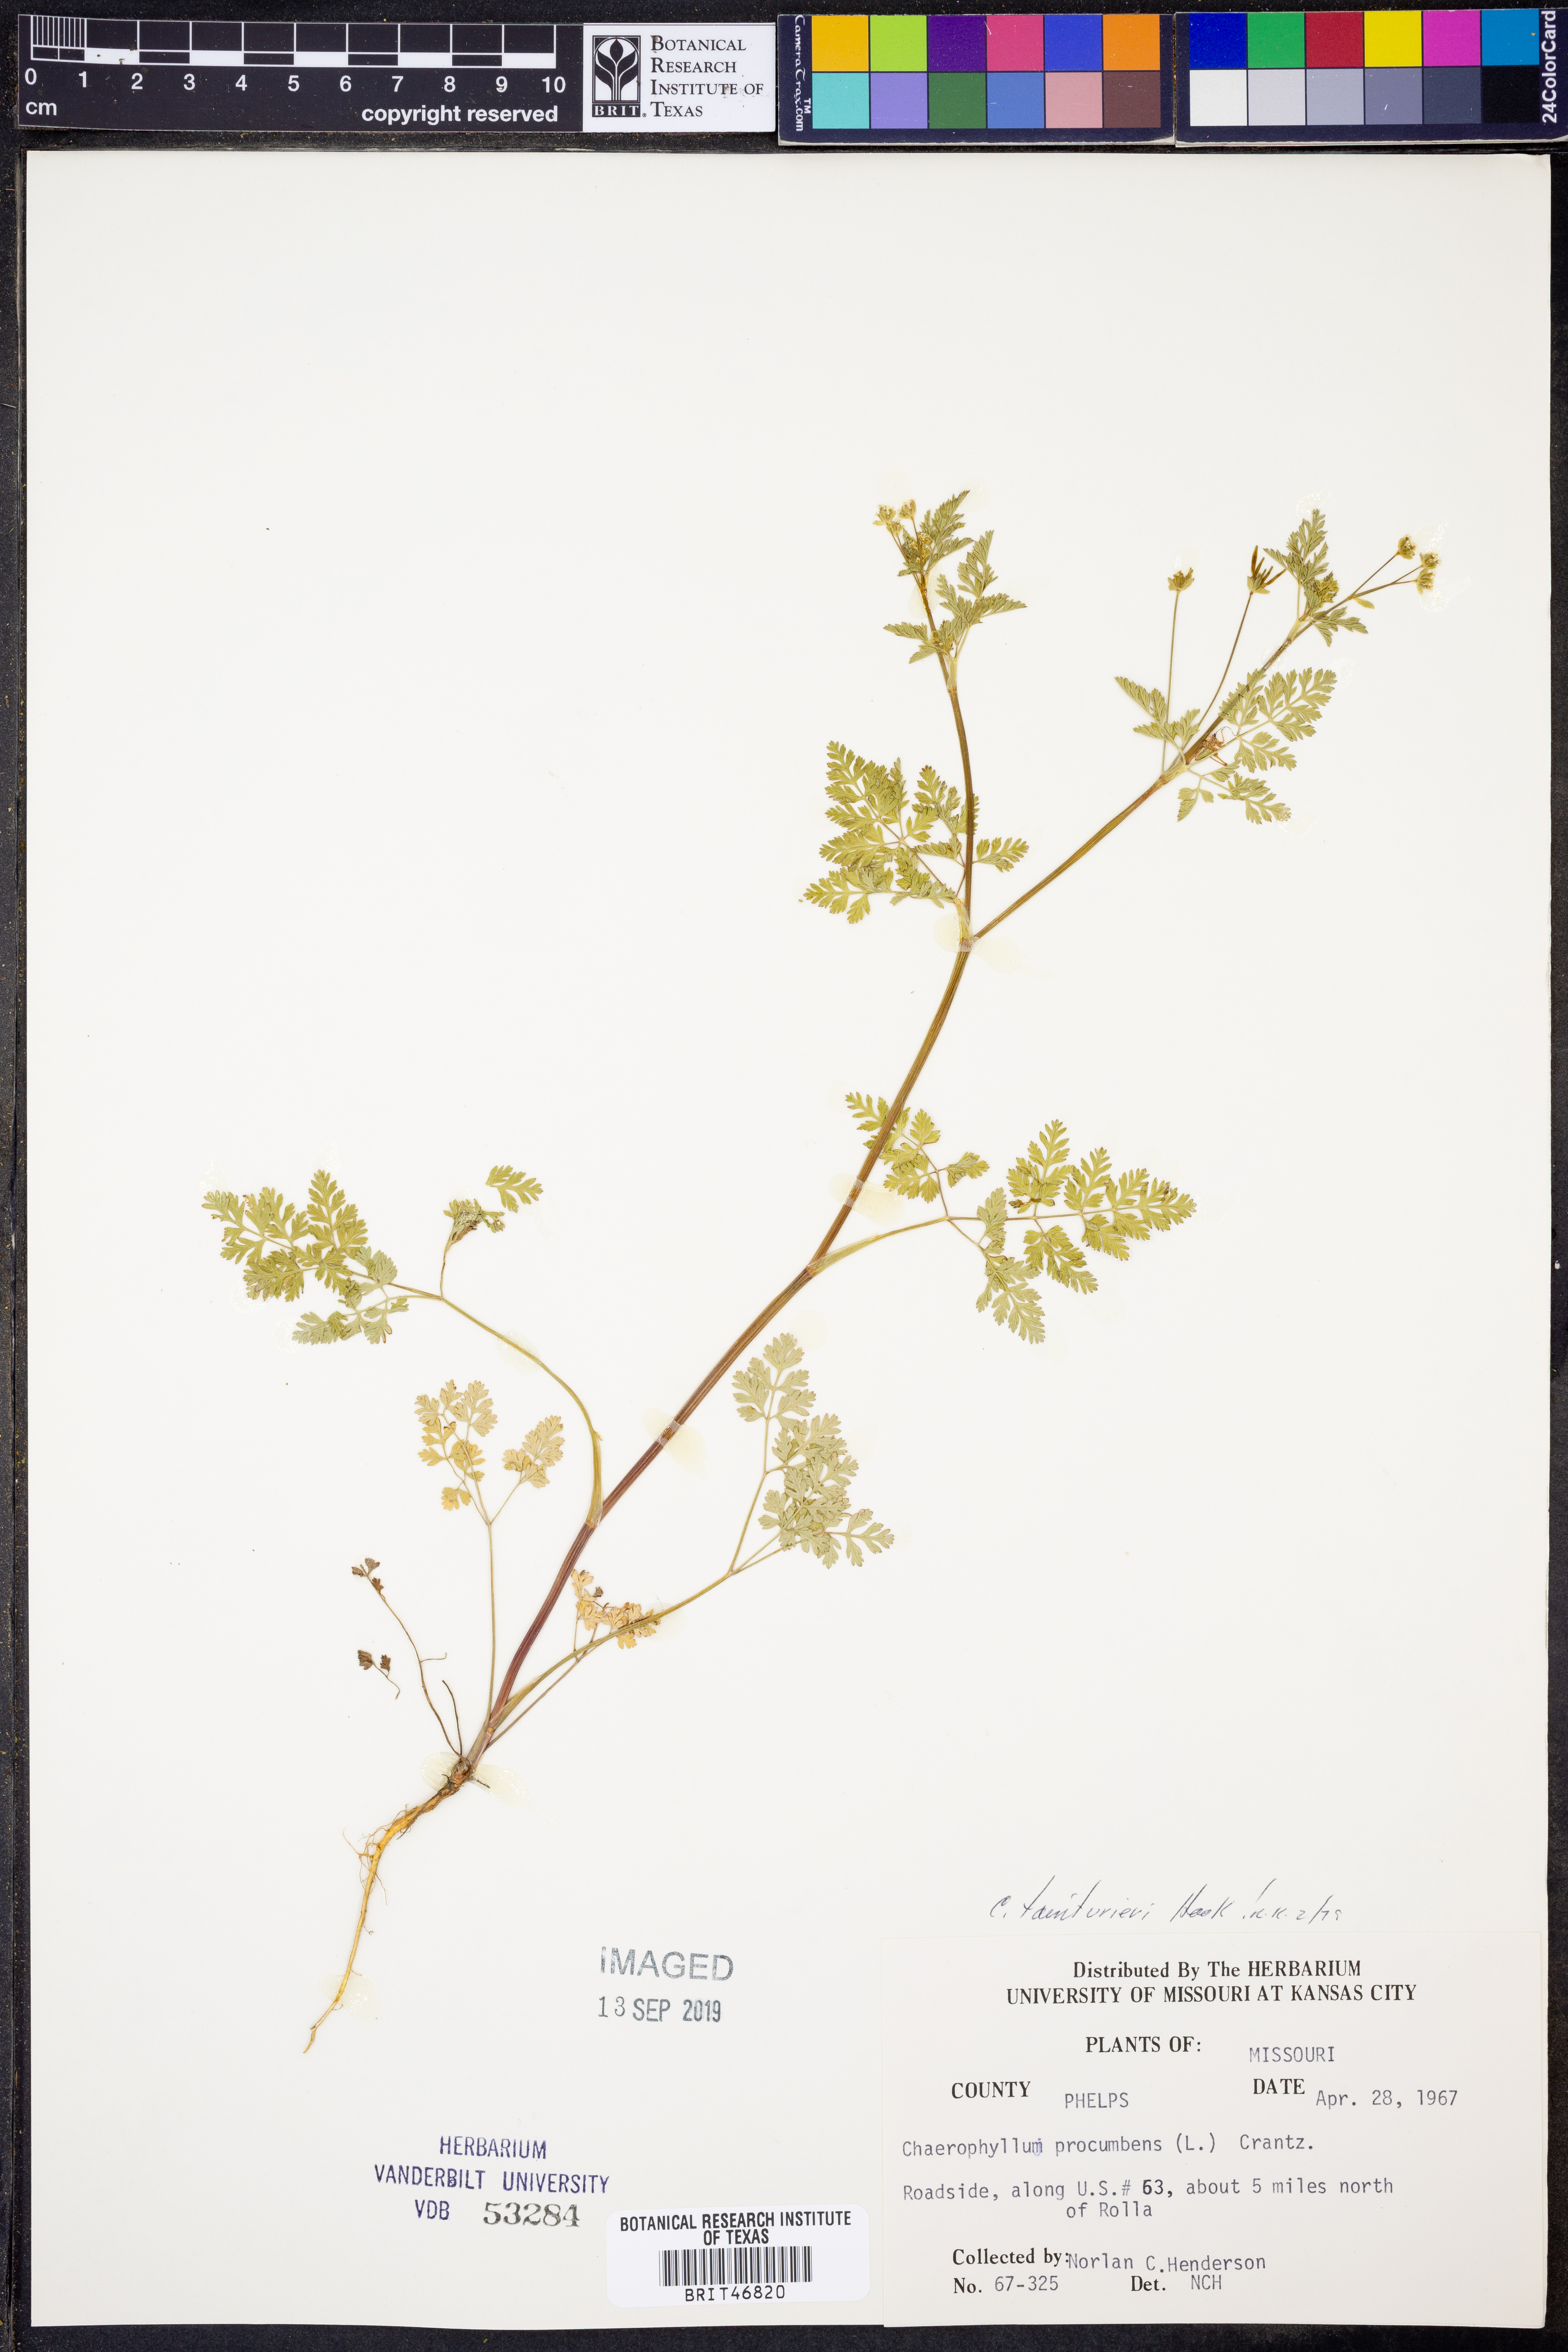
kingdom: Plantae
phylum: Tracheophyta
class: Magnoliopsida
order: Apiales
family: Apiaceae
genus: Chaerophyllum
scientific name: Chaerophyllum tainturieri
